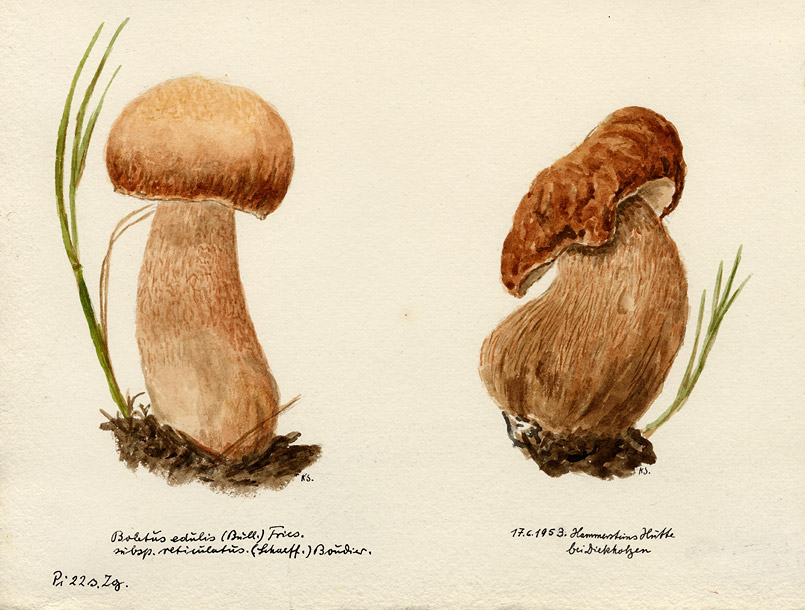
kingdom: Fungi
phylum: Basidiomycota
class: Agaricomycetes
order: Boletales
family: Boletaceae
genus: Boletus
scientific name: Boletus reticulatus
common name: Summer bolete
